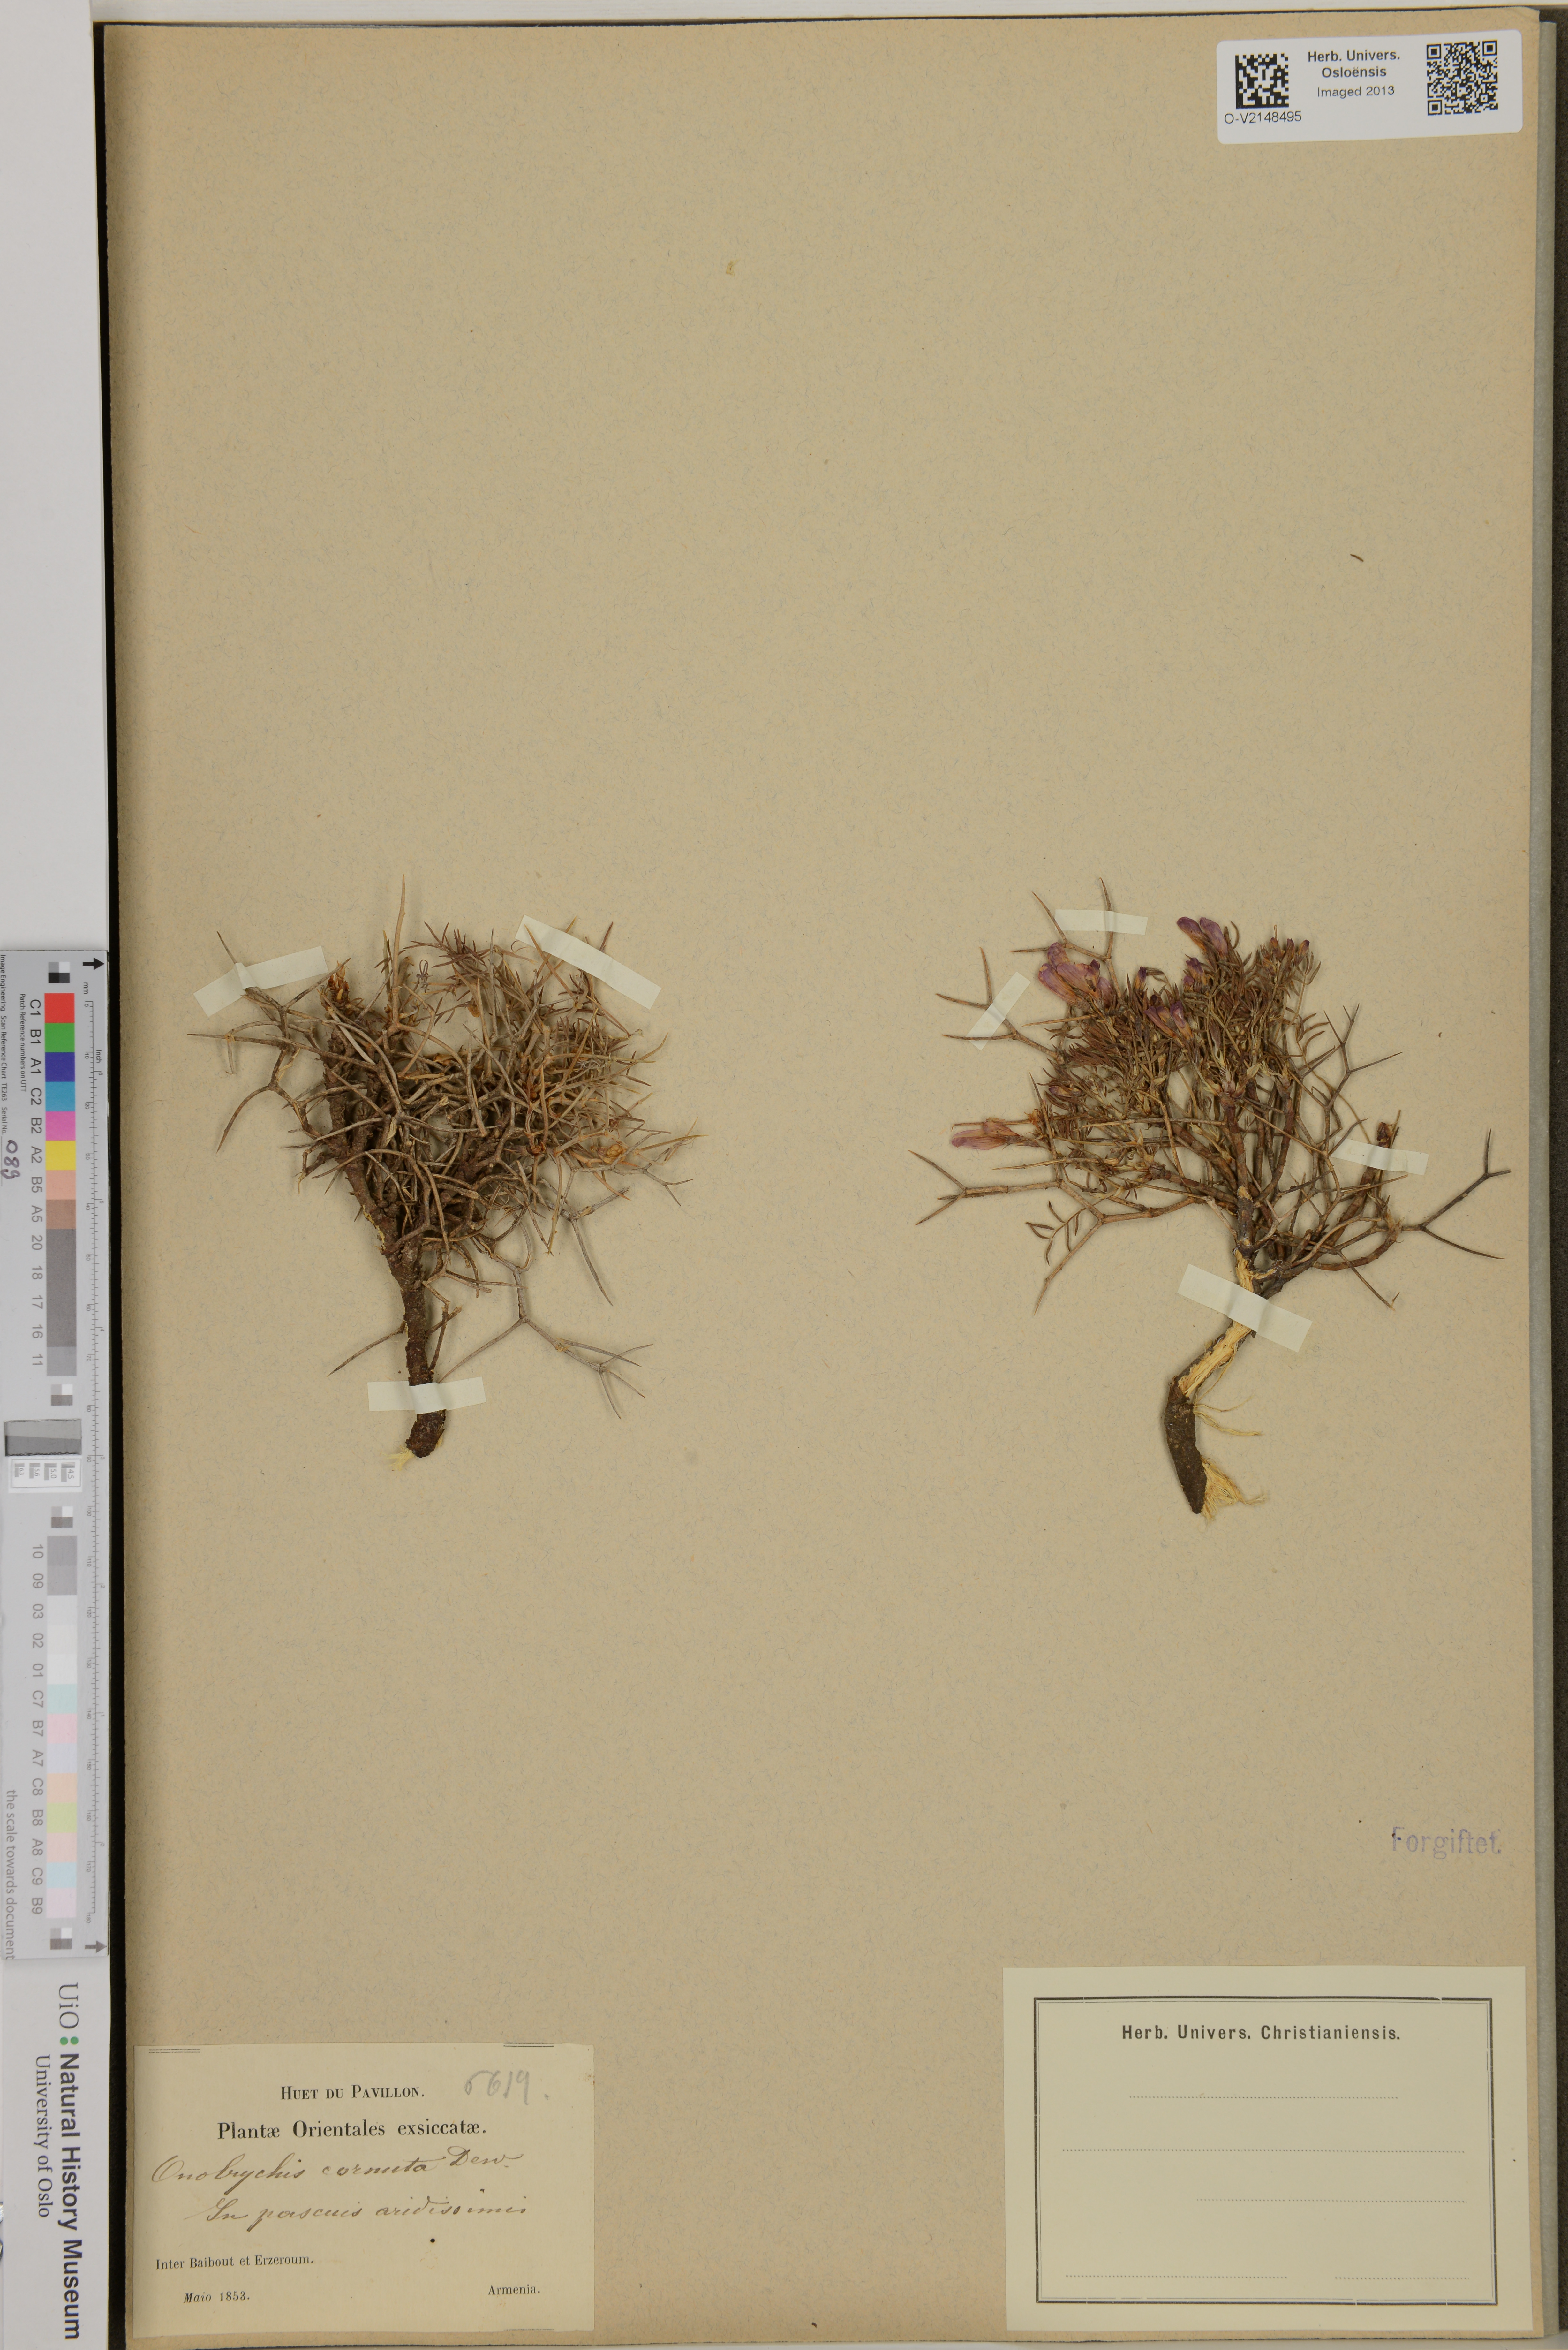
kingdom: Plantae
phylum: Tracheophyta
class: Magnoliopsida
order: Fabales
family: Fabaceae
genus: Onobrychis
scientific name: Onobrychis cornuta
